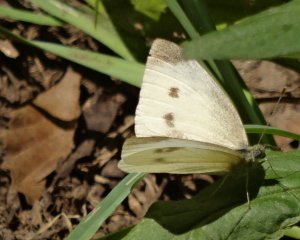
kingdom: Animalia
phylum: Arthropoda
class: Insecta
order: Lepidoptera
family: Pieridae
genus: Pieris
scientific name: Pieris rapae
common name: Cabbage White
